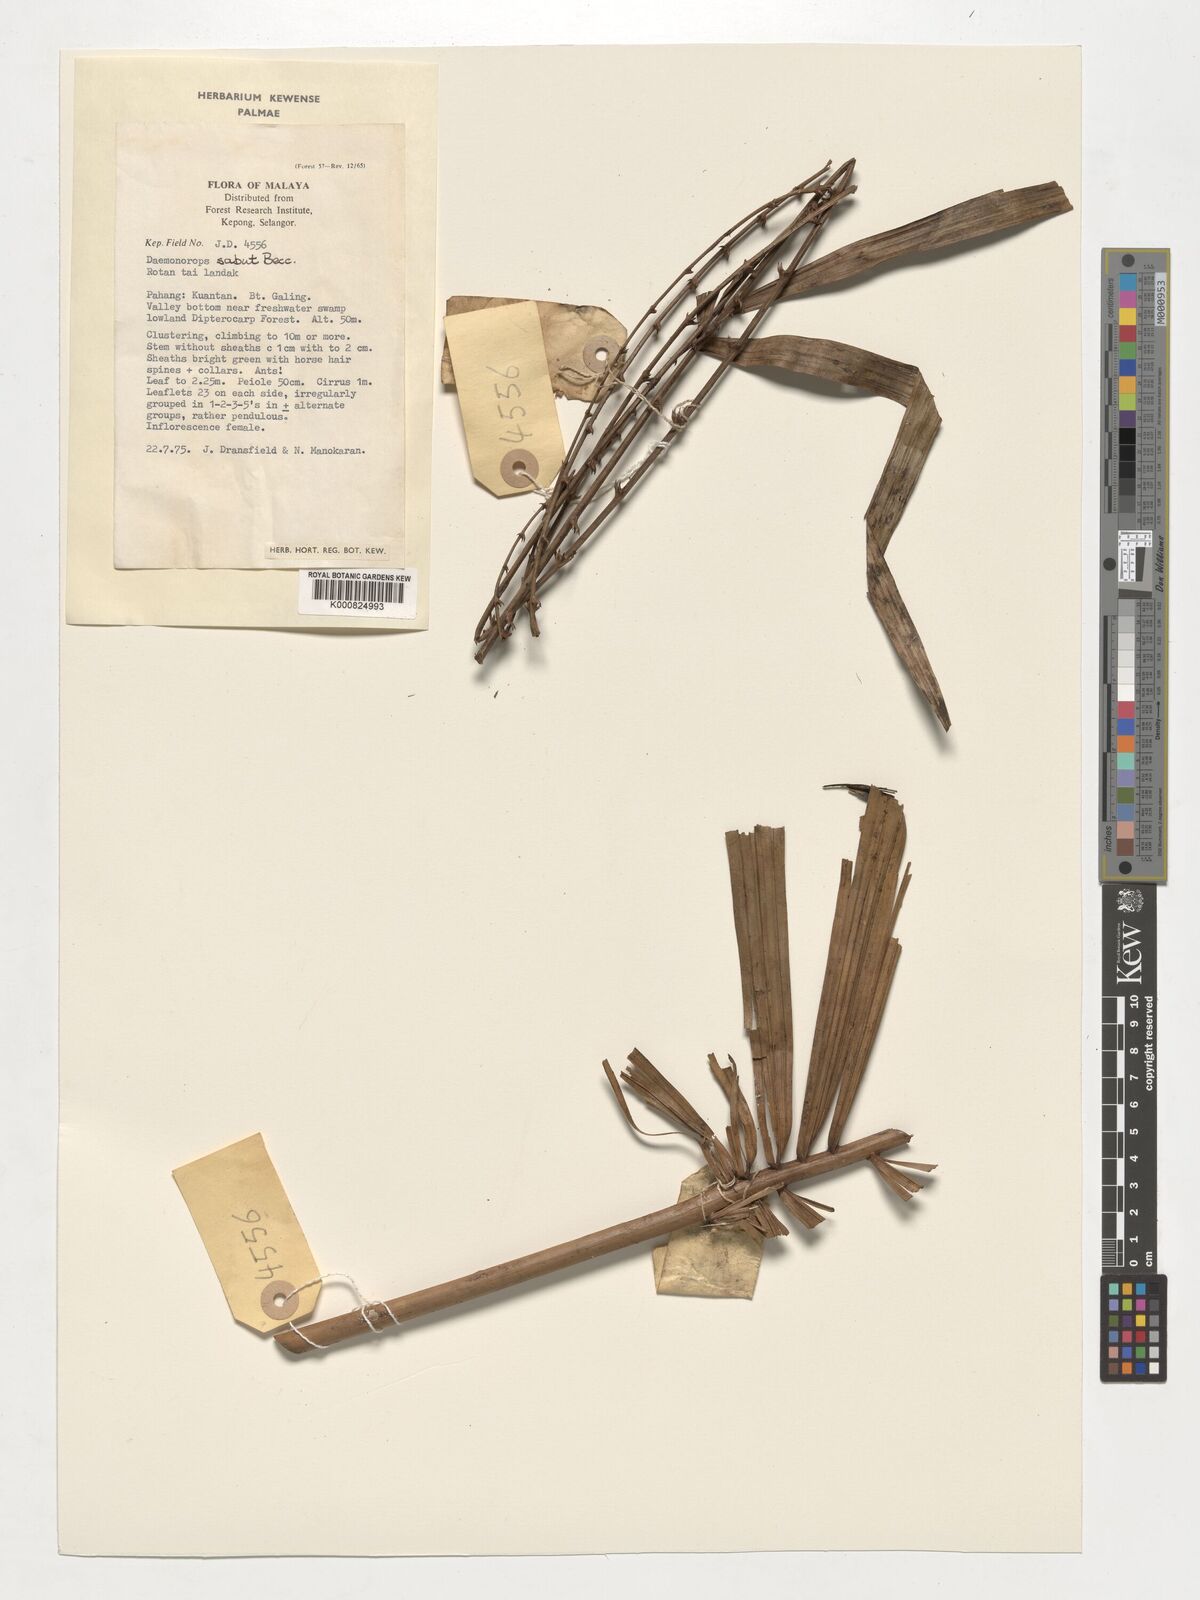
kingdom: Plantae
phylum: Tracheophyta
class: Liliopsida
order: Arecales
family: Arecaceae
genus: Calamus
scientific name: Calamus crinitus
